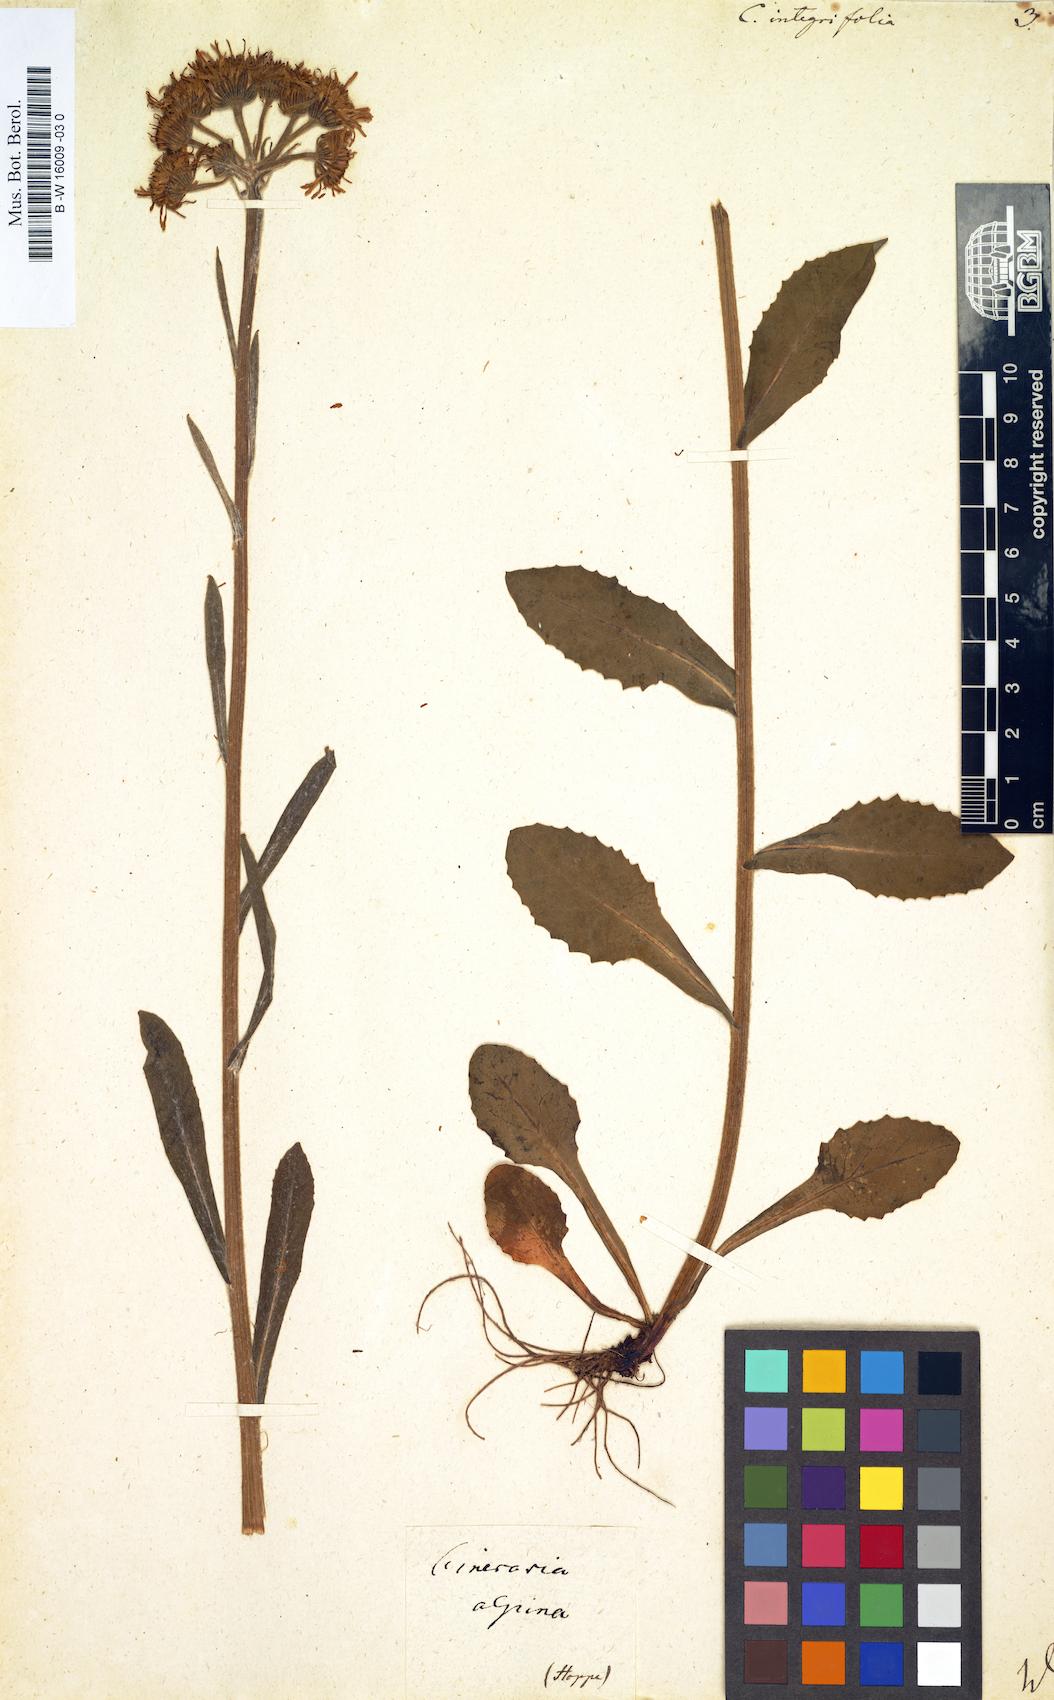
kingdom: Plantae
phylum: Tracheophyta
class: Magnoliopsida
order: Asterales
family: Asteraceae
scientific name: Asteraceae
